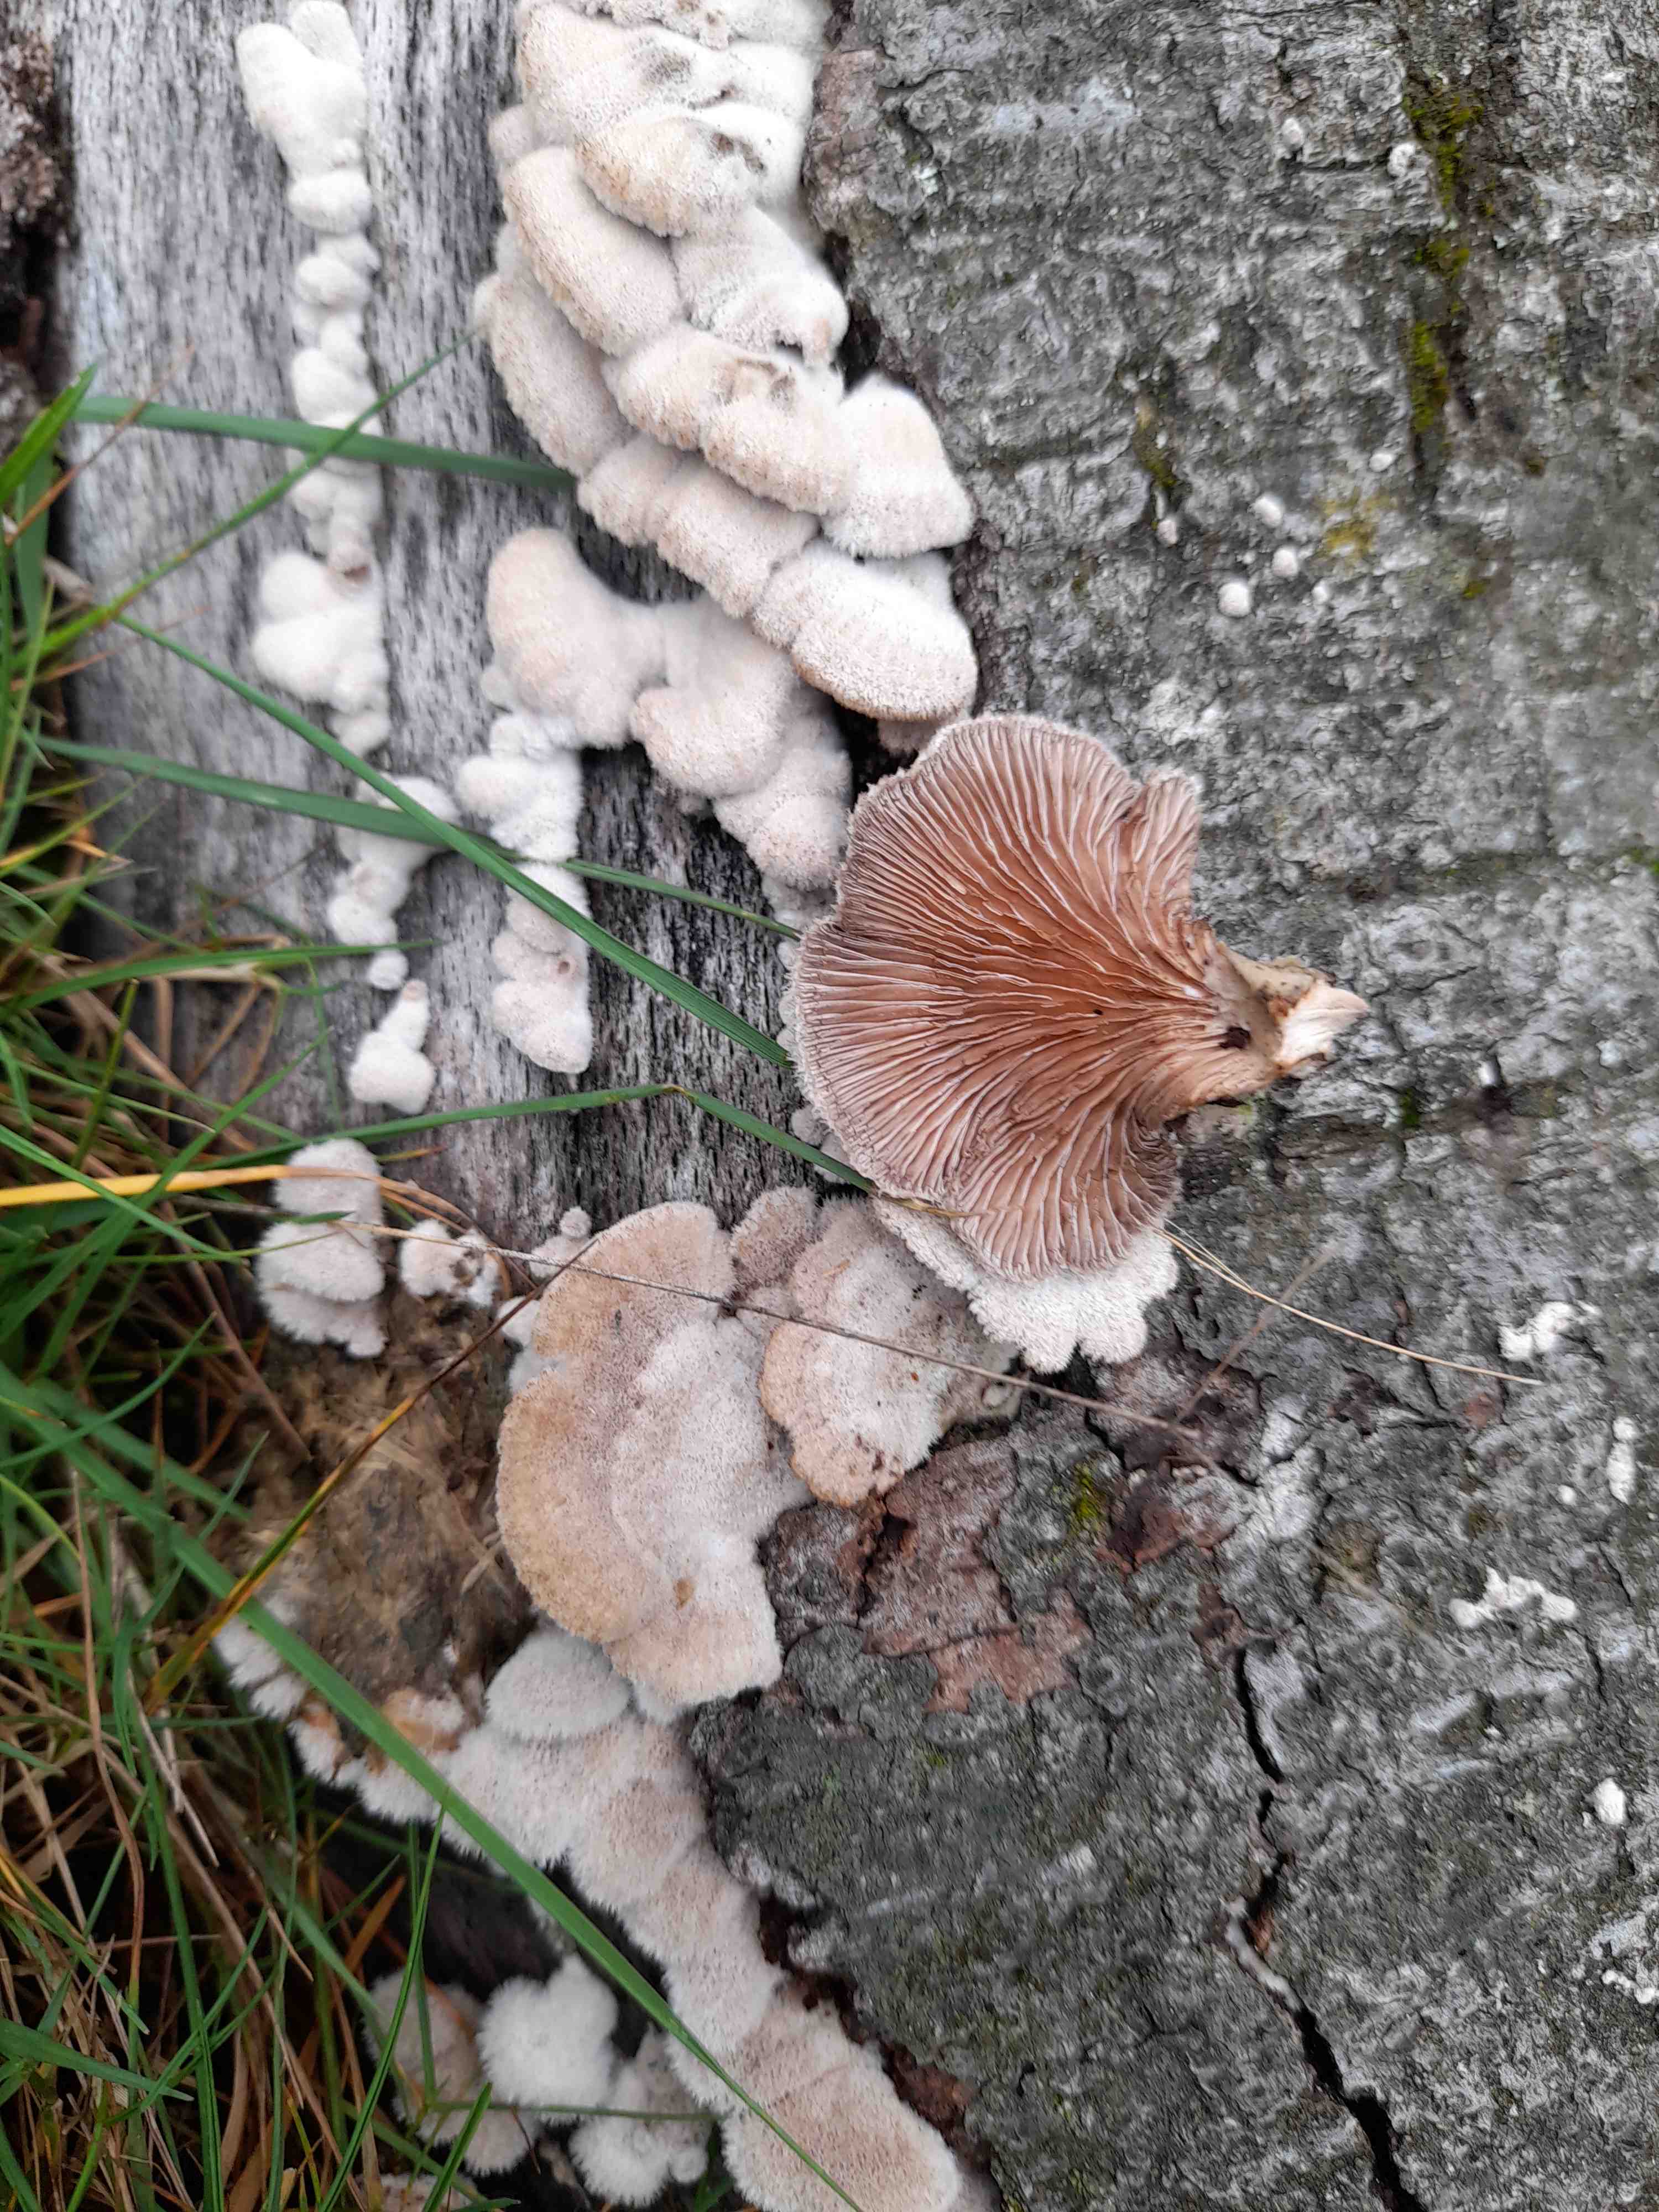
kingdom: Fungi
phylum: Basidiomycota
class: Agaricomycetes
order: Agaricales
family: Schizophyllaceae
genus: Schizophyllum
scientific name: Schizophyllum commune
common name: kløvblad
